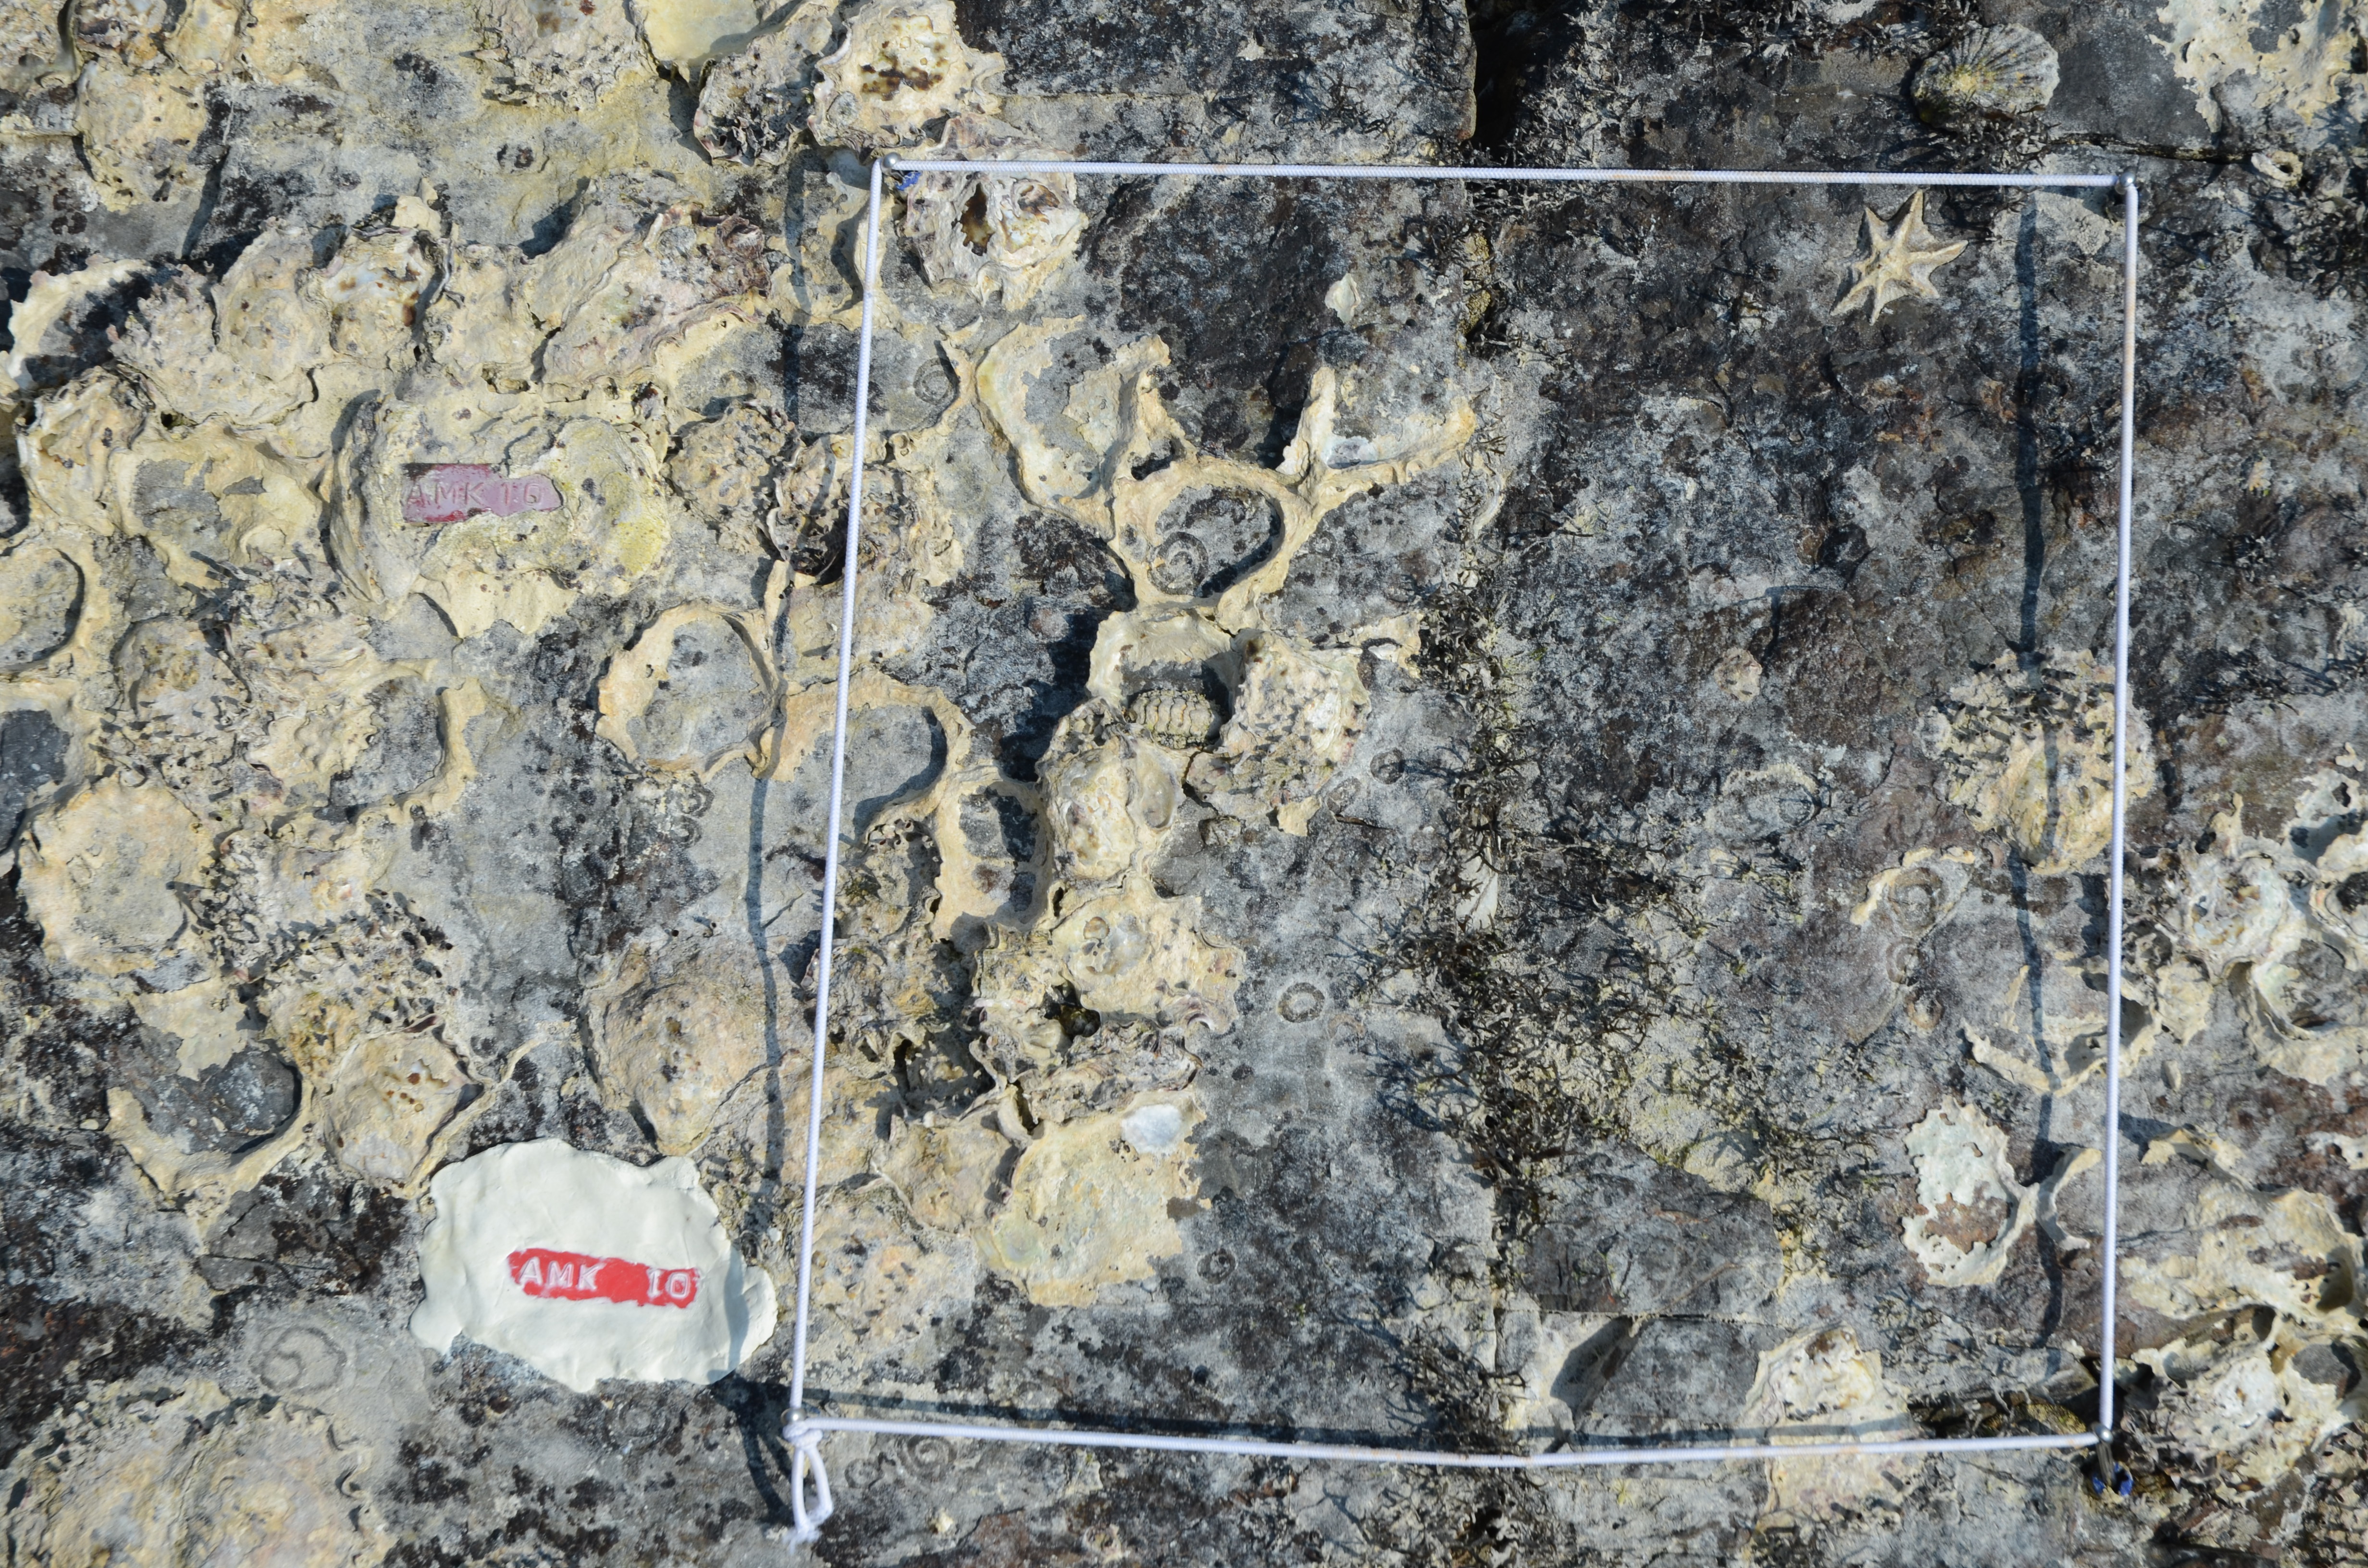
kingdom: Chromista
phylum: Ochrophyta
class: Phaeophyceae
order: Ishigeales
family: Ishigeaceae
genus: Ishige
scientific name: Ishige okamurae
